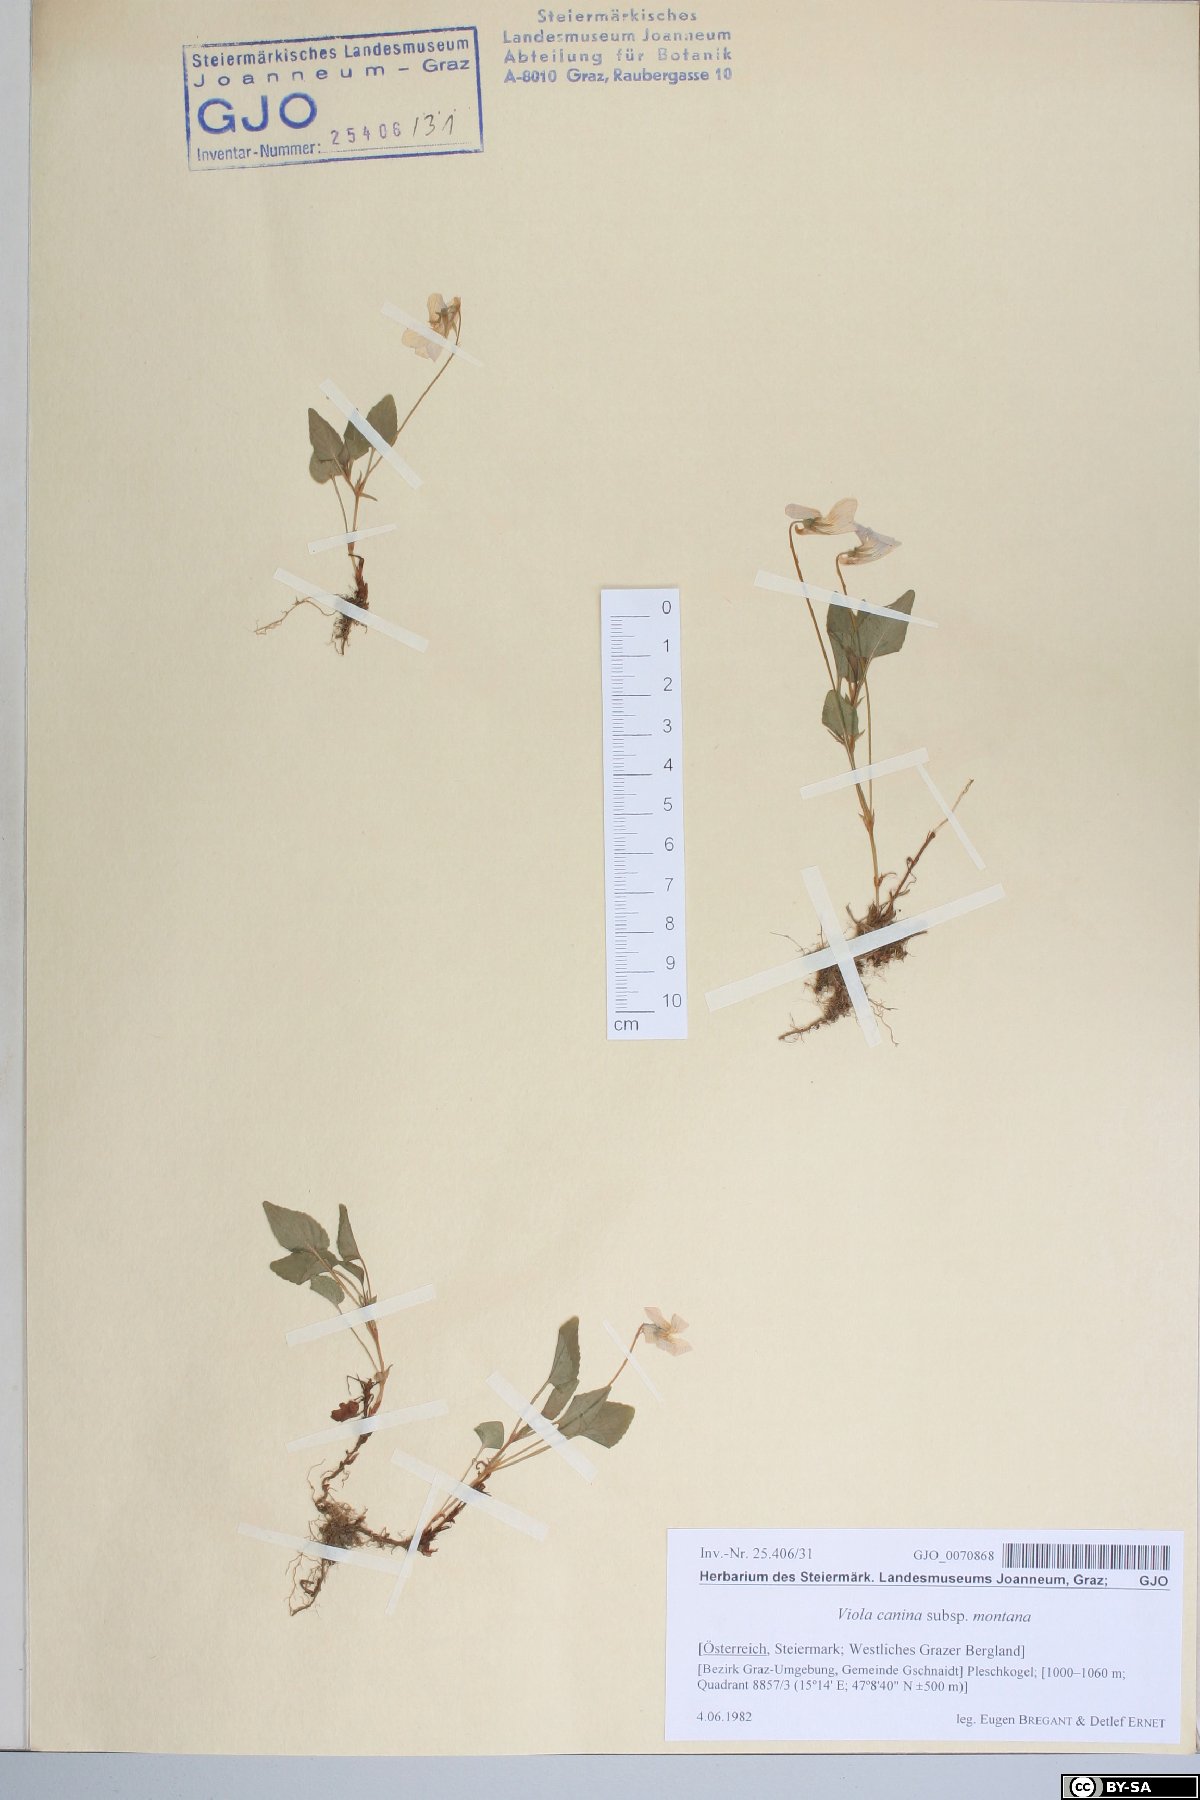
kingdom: Plantae
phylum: Tracheophyta
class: Magnoliopsida
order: Malpighiales
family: Violaceae
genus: Viola
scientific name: Viola ruppii
